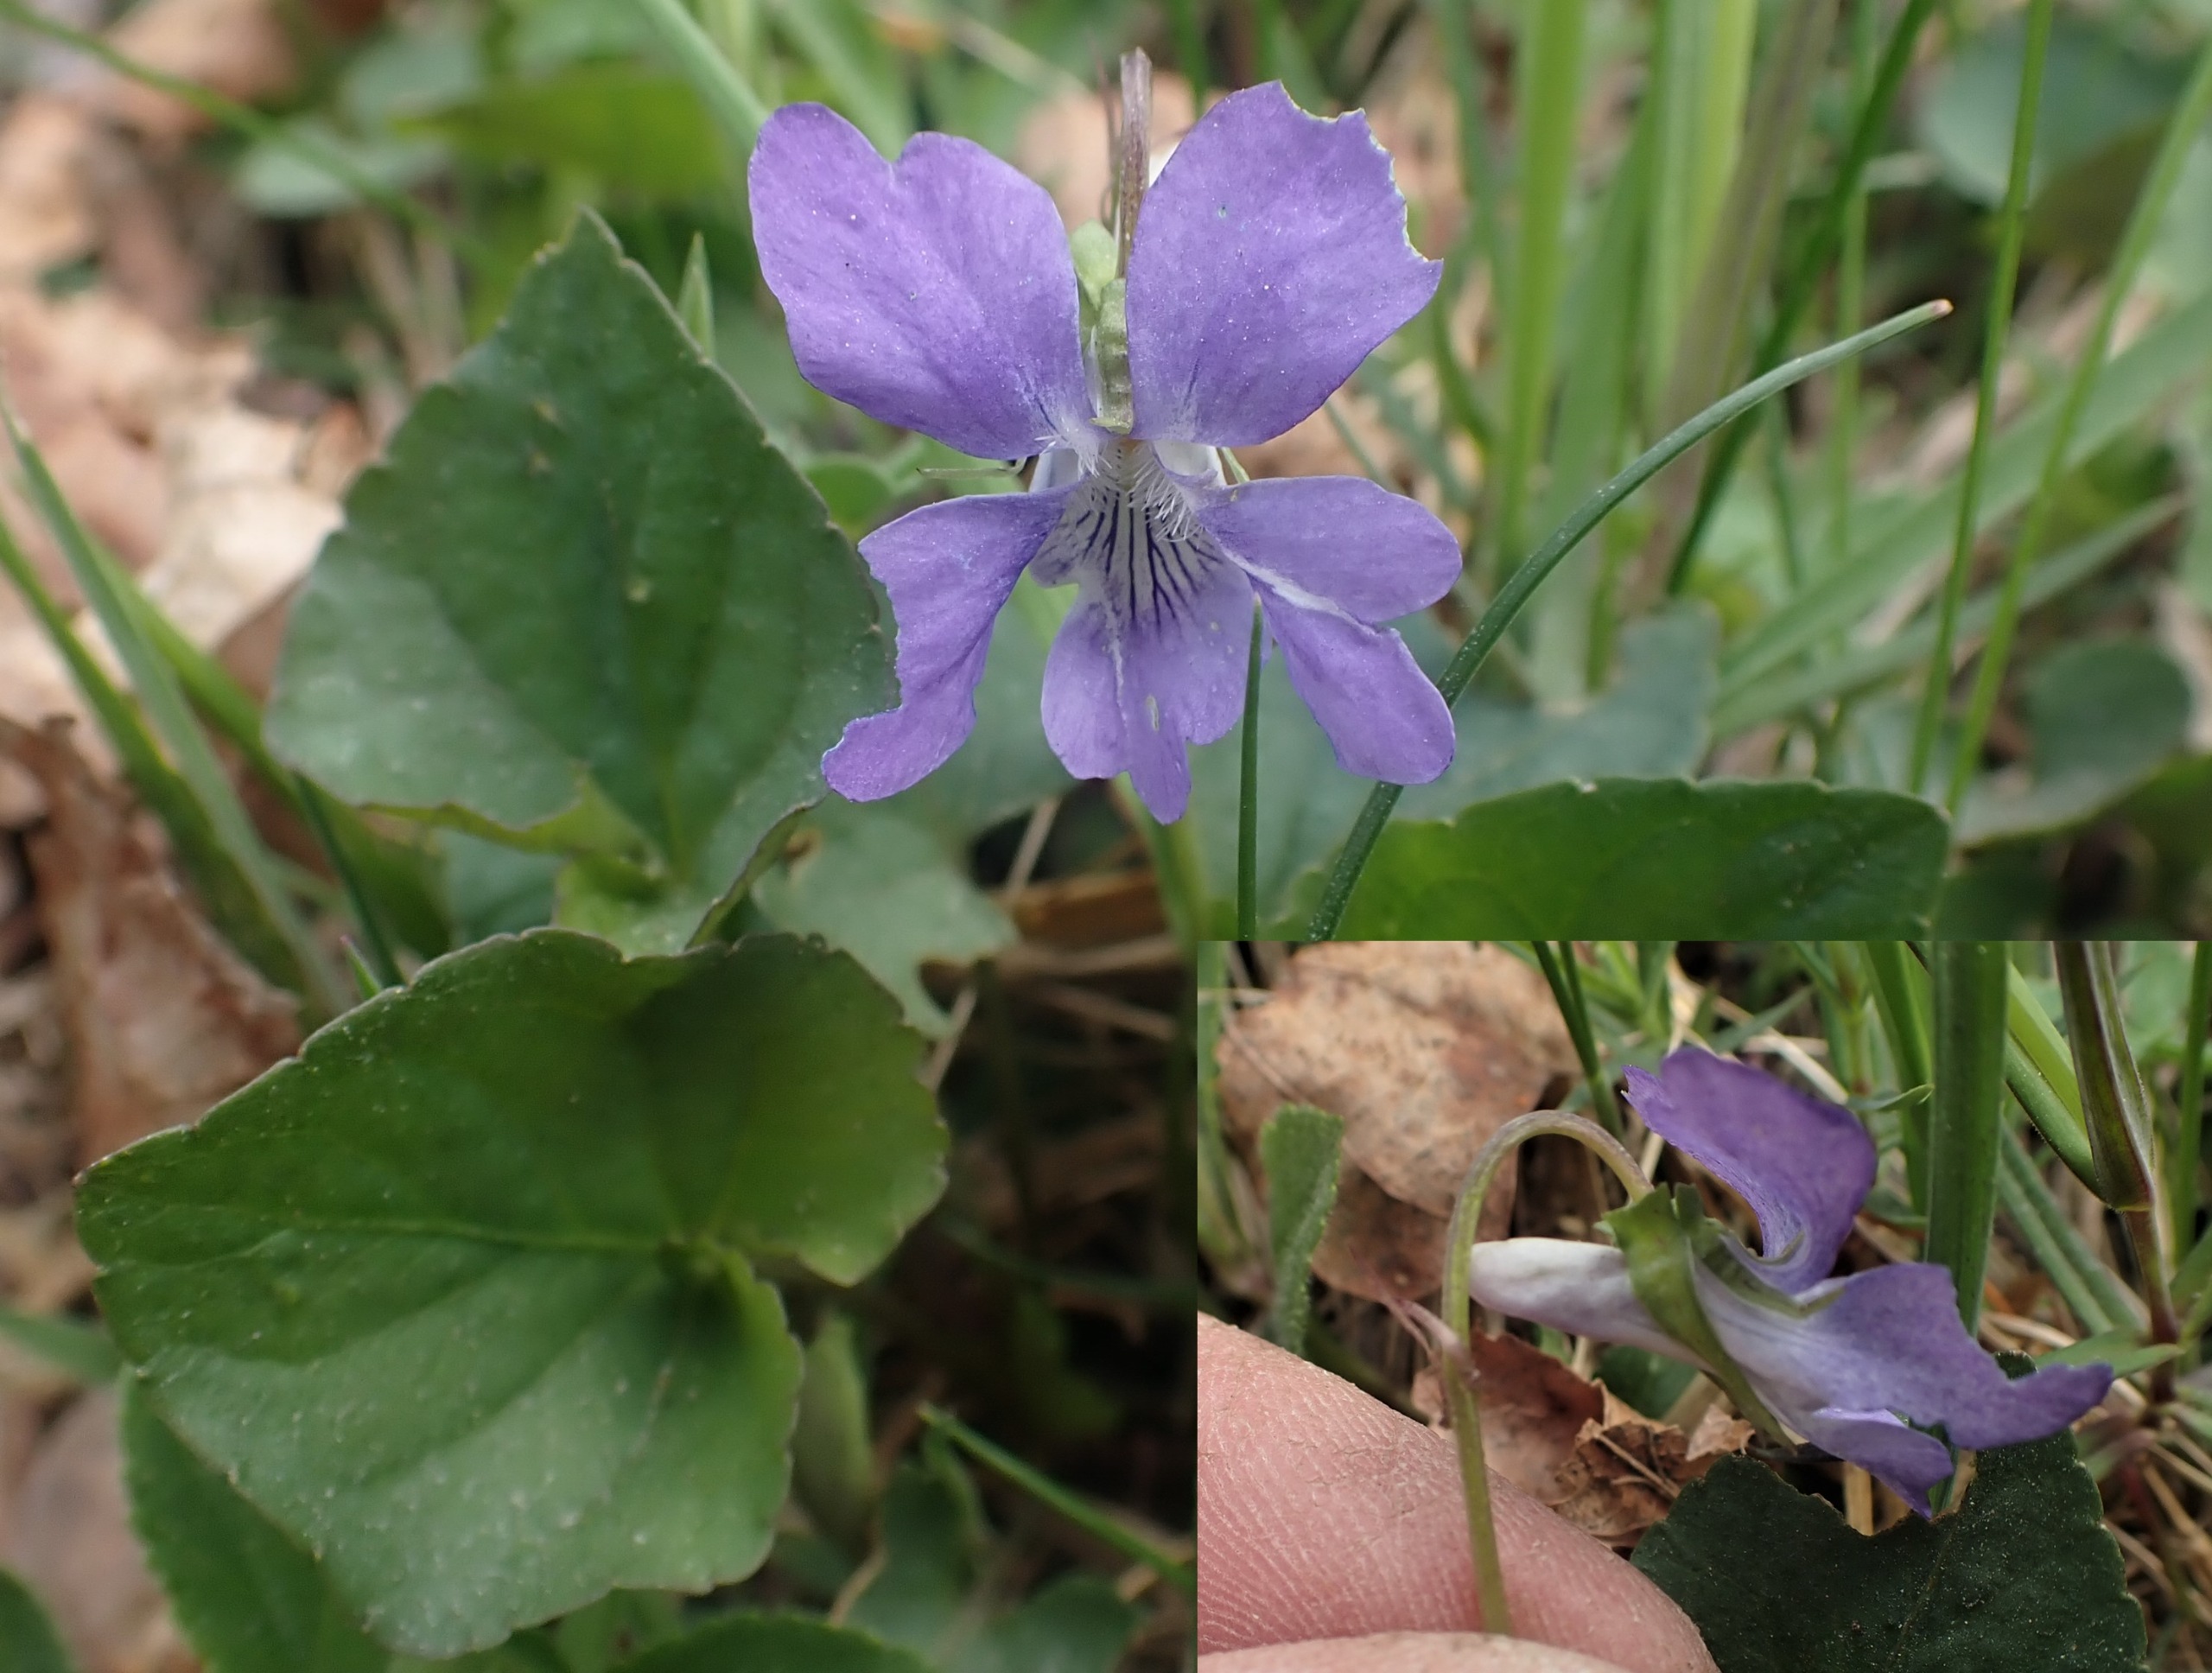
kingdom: Plantae
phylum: Tracheophyta
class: Magnoliopsida
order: Malpighiales
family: Violaceae
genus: Viola
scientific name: Viola riviniana
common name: Krat-viol
